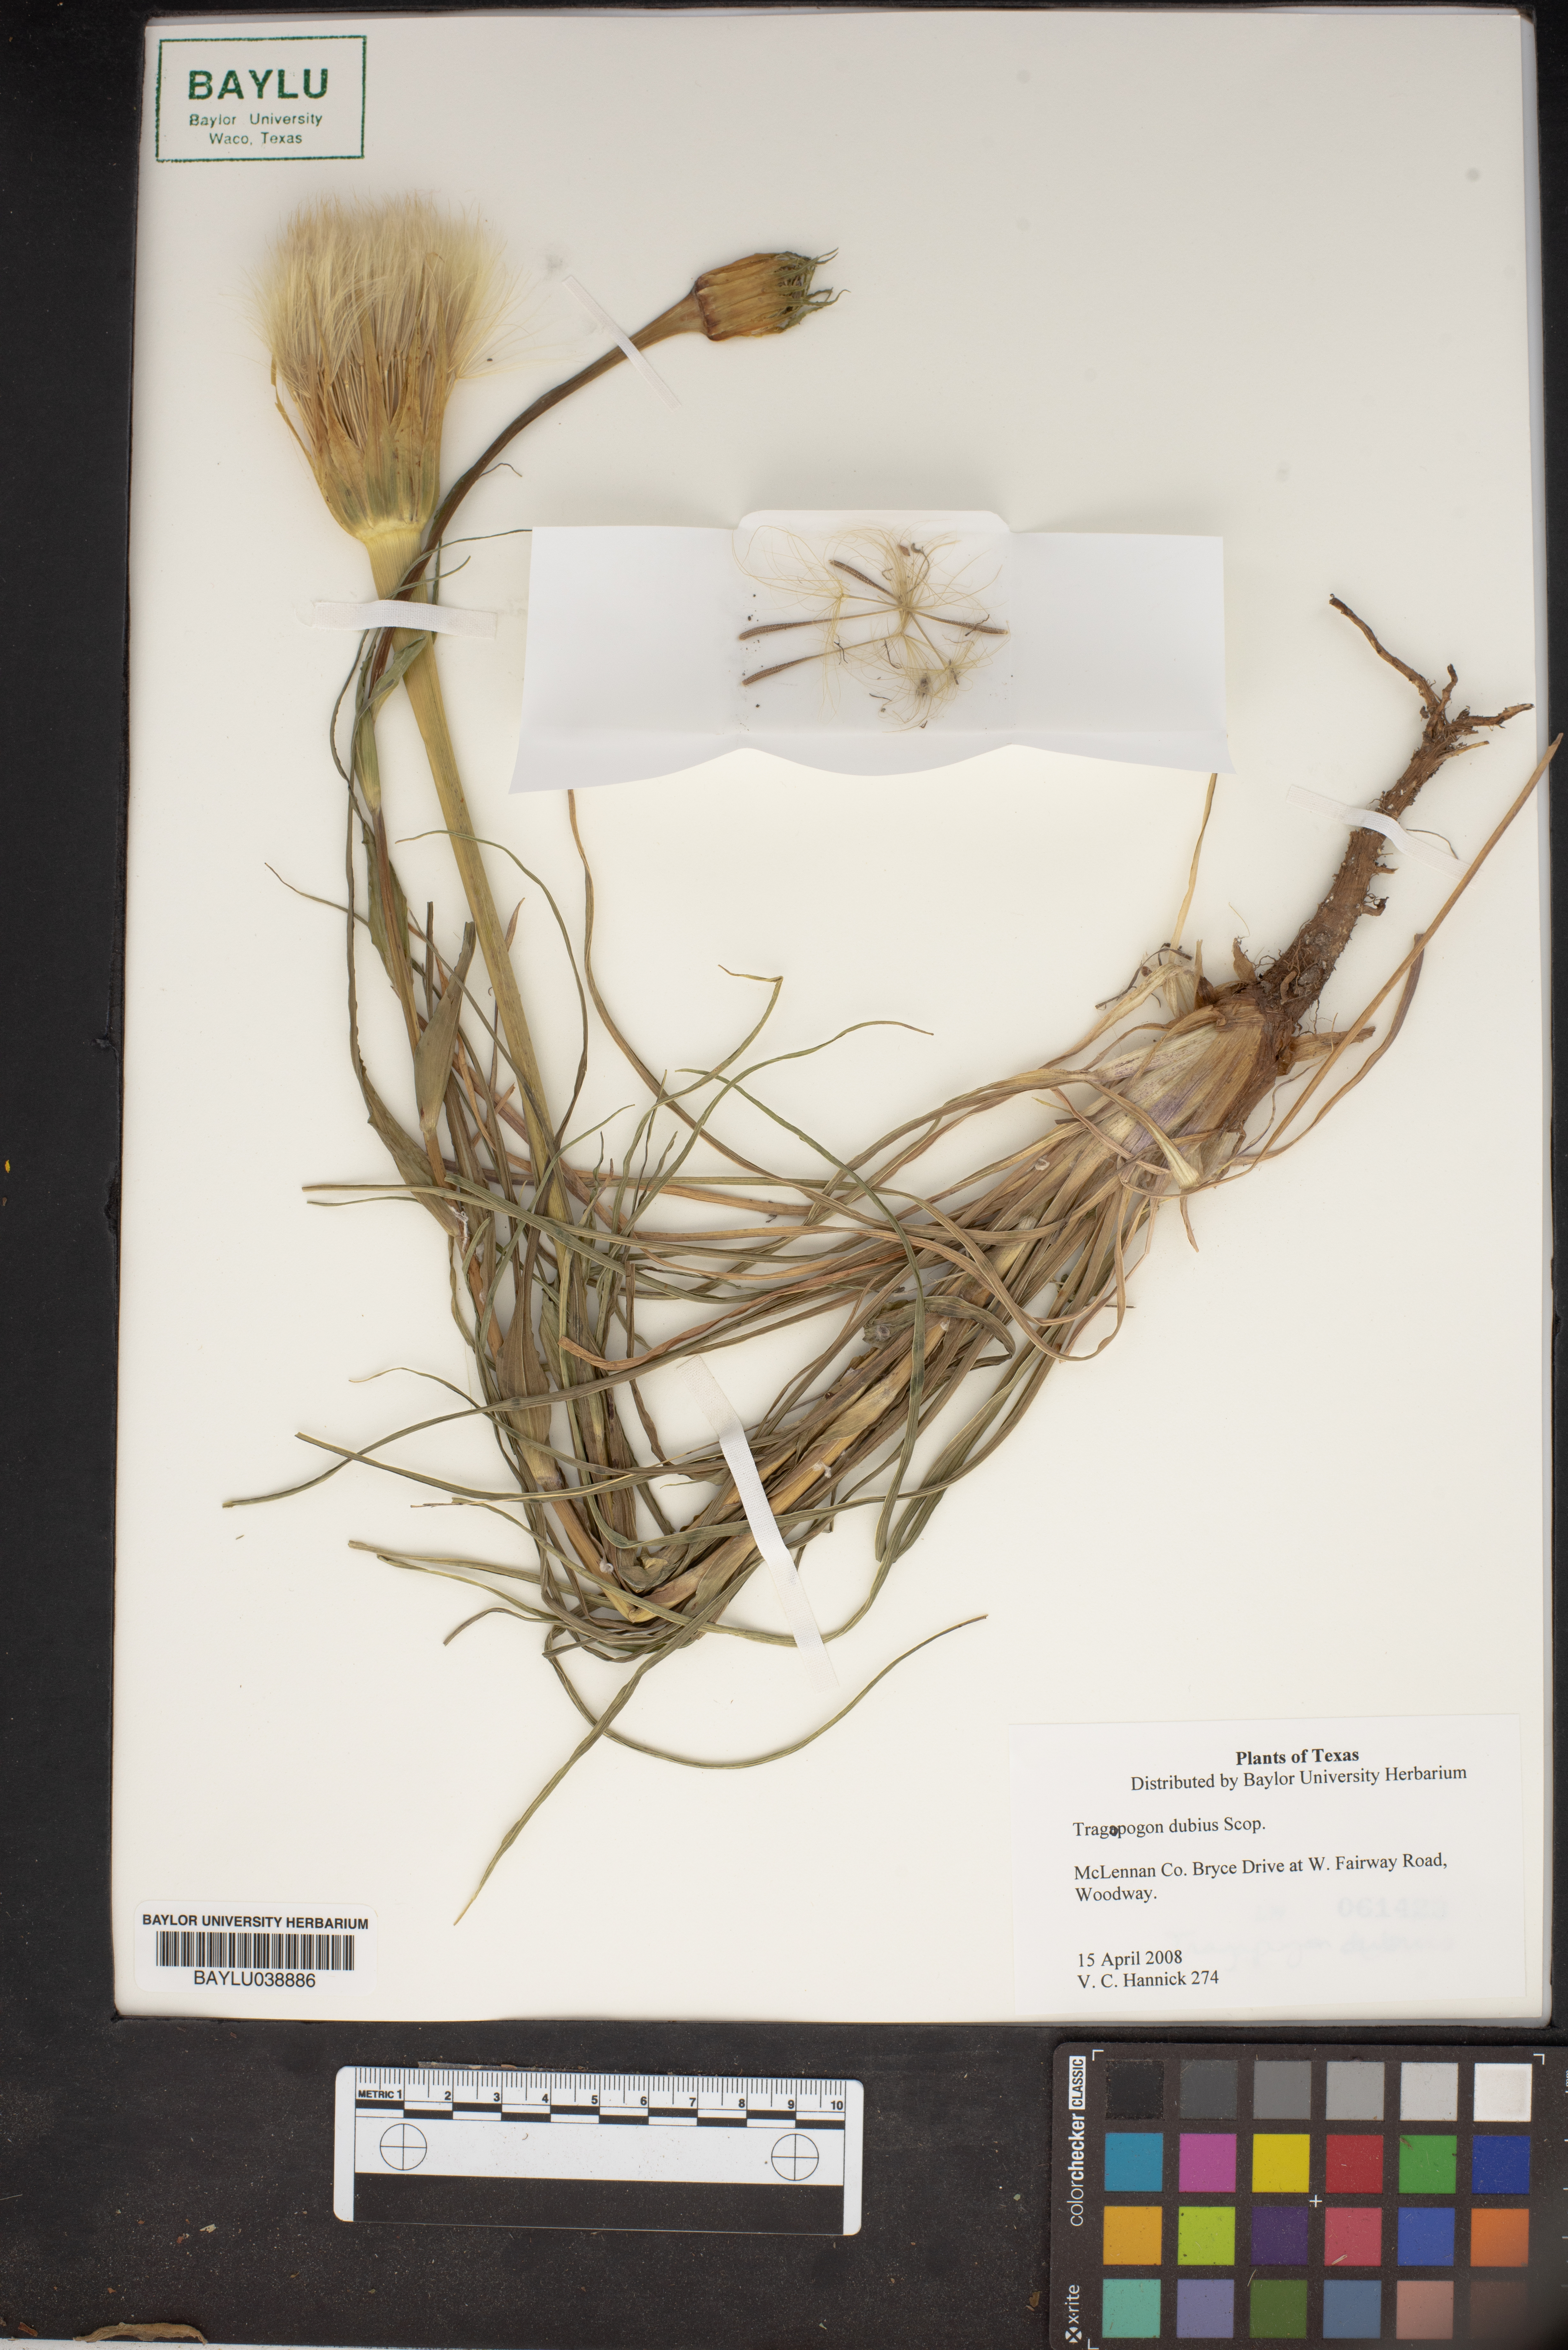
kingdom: Plantae
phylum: Tracheophyta
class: Magnoliopsida
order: Asterales
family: Asteraceae
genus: Tragopogon
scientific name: Tragopogon dubius
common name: Yellow salsify
